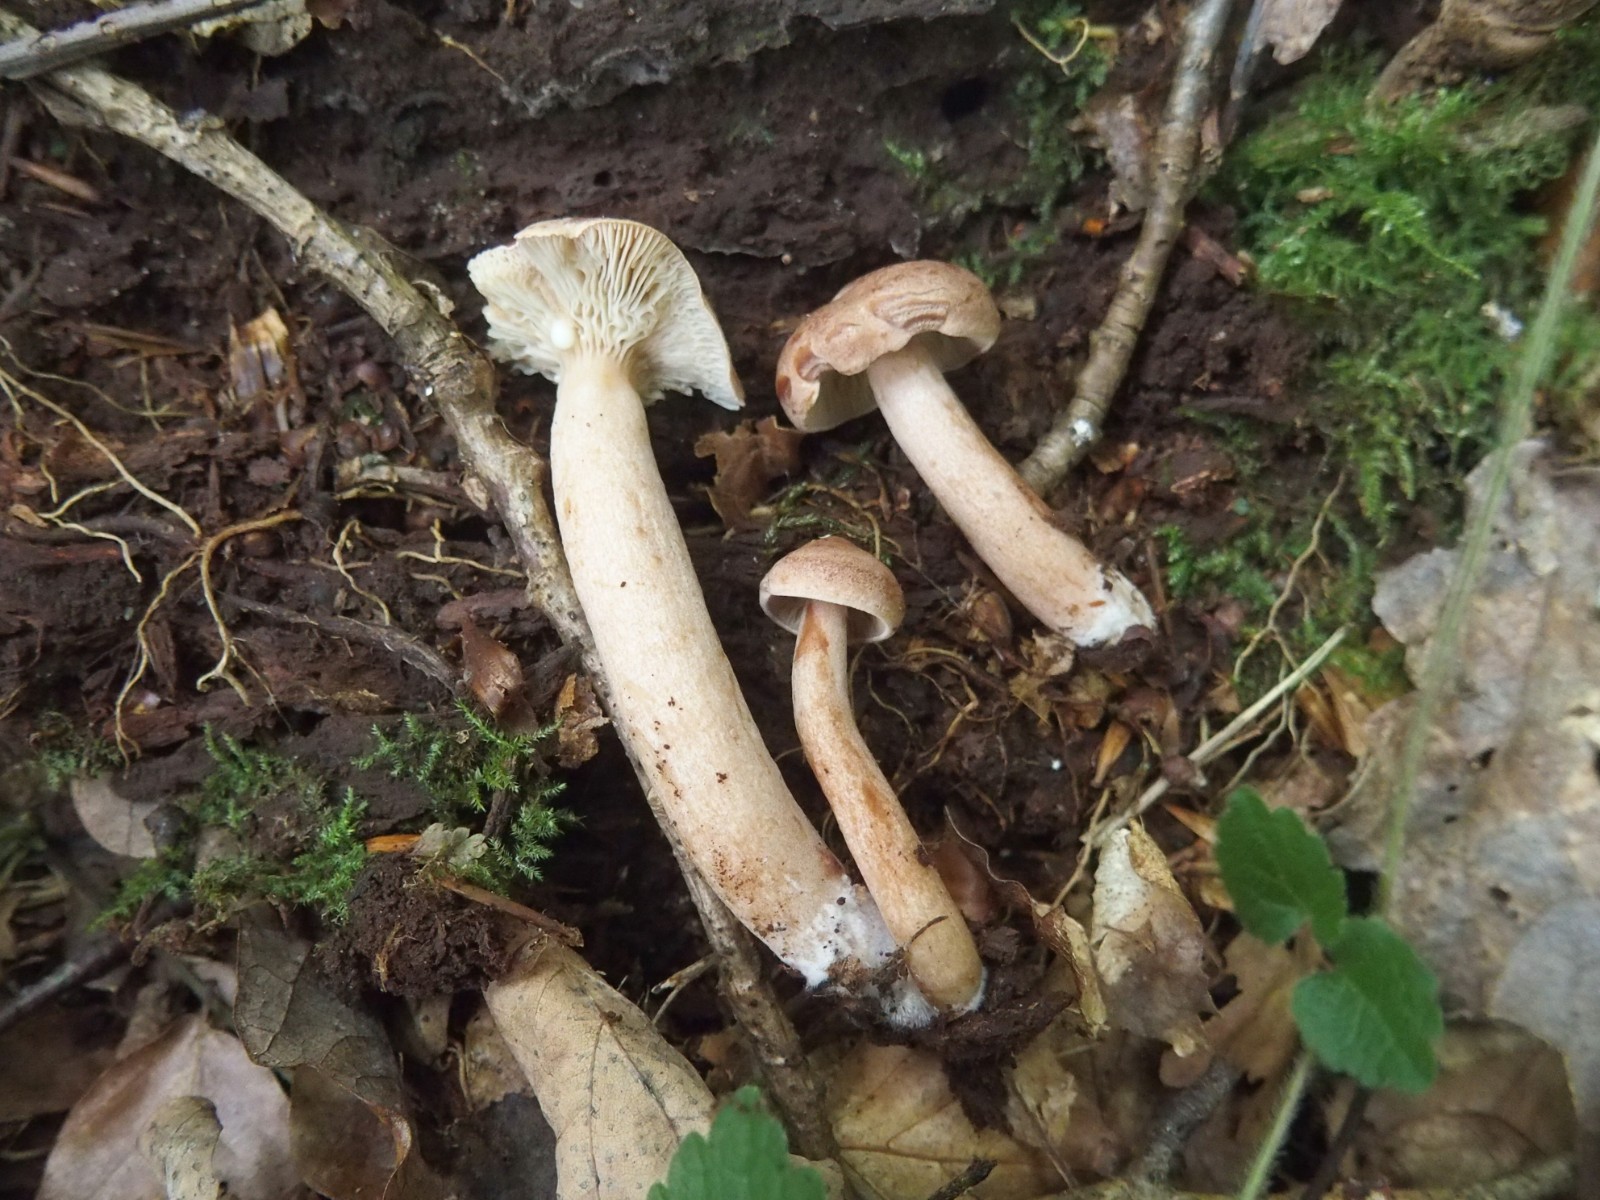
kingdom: Fungi
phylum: Basidiomycota
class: Agaricomycetes
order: Russulales
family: Russulaceae
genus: Lactarius
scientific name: Lactarius quietus
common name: ege-mælkehat
